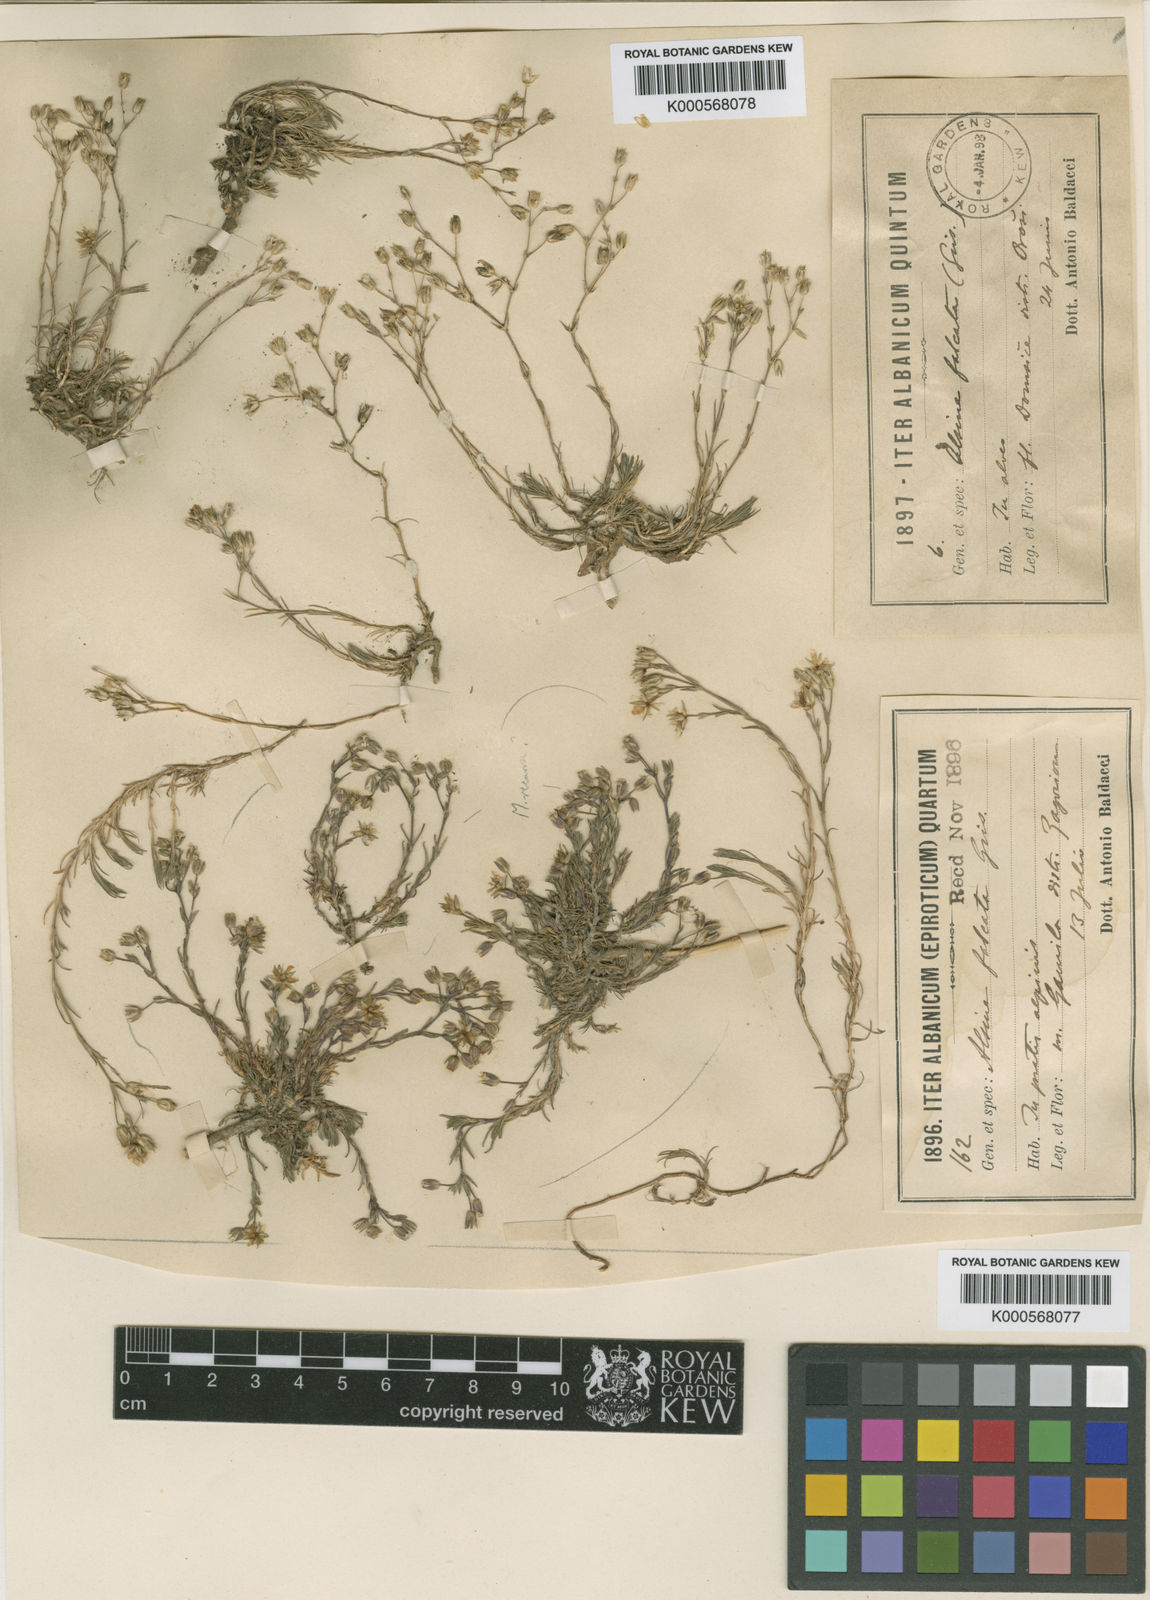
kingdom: Plantae
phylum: Tracheophyta
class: Magnoliopsida
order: Caryophyllales
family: Caryophyllaceae
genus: Minuartia
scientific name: Minuartia hirsuta
